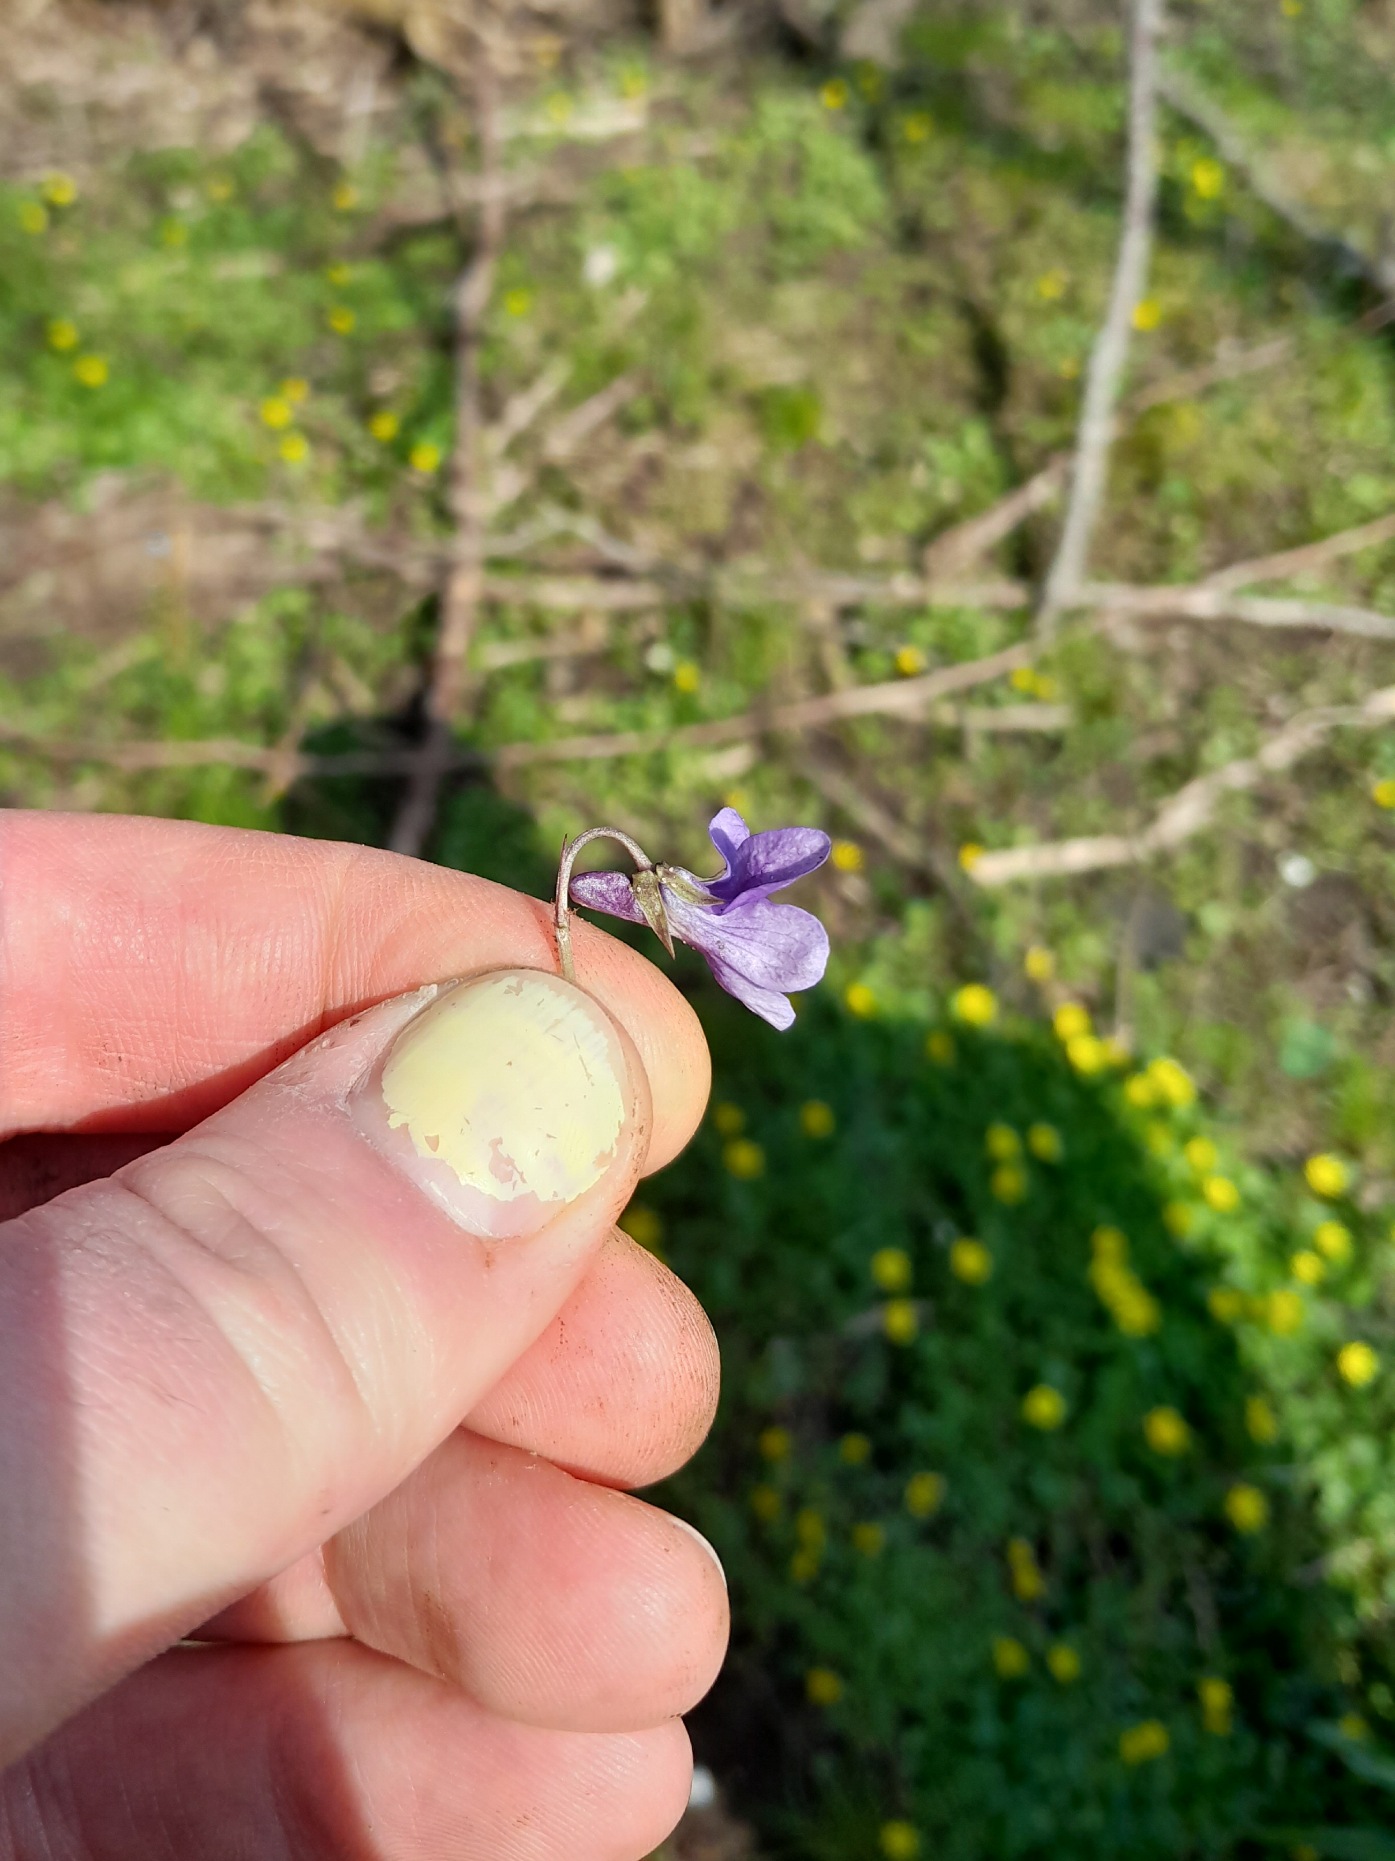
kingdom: Plantae
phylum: Tracheophyta
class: Magnoliopsida
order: Malpighiales
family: Violaceae
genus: Viola
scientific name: Viola reichenbachiana
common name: Skov-viol
